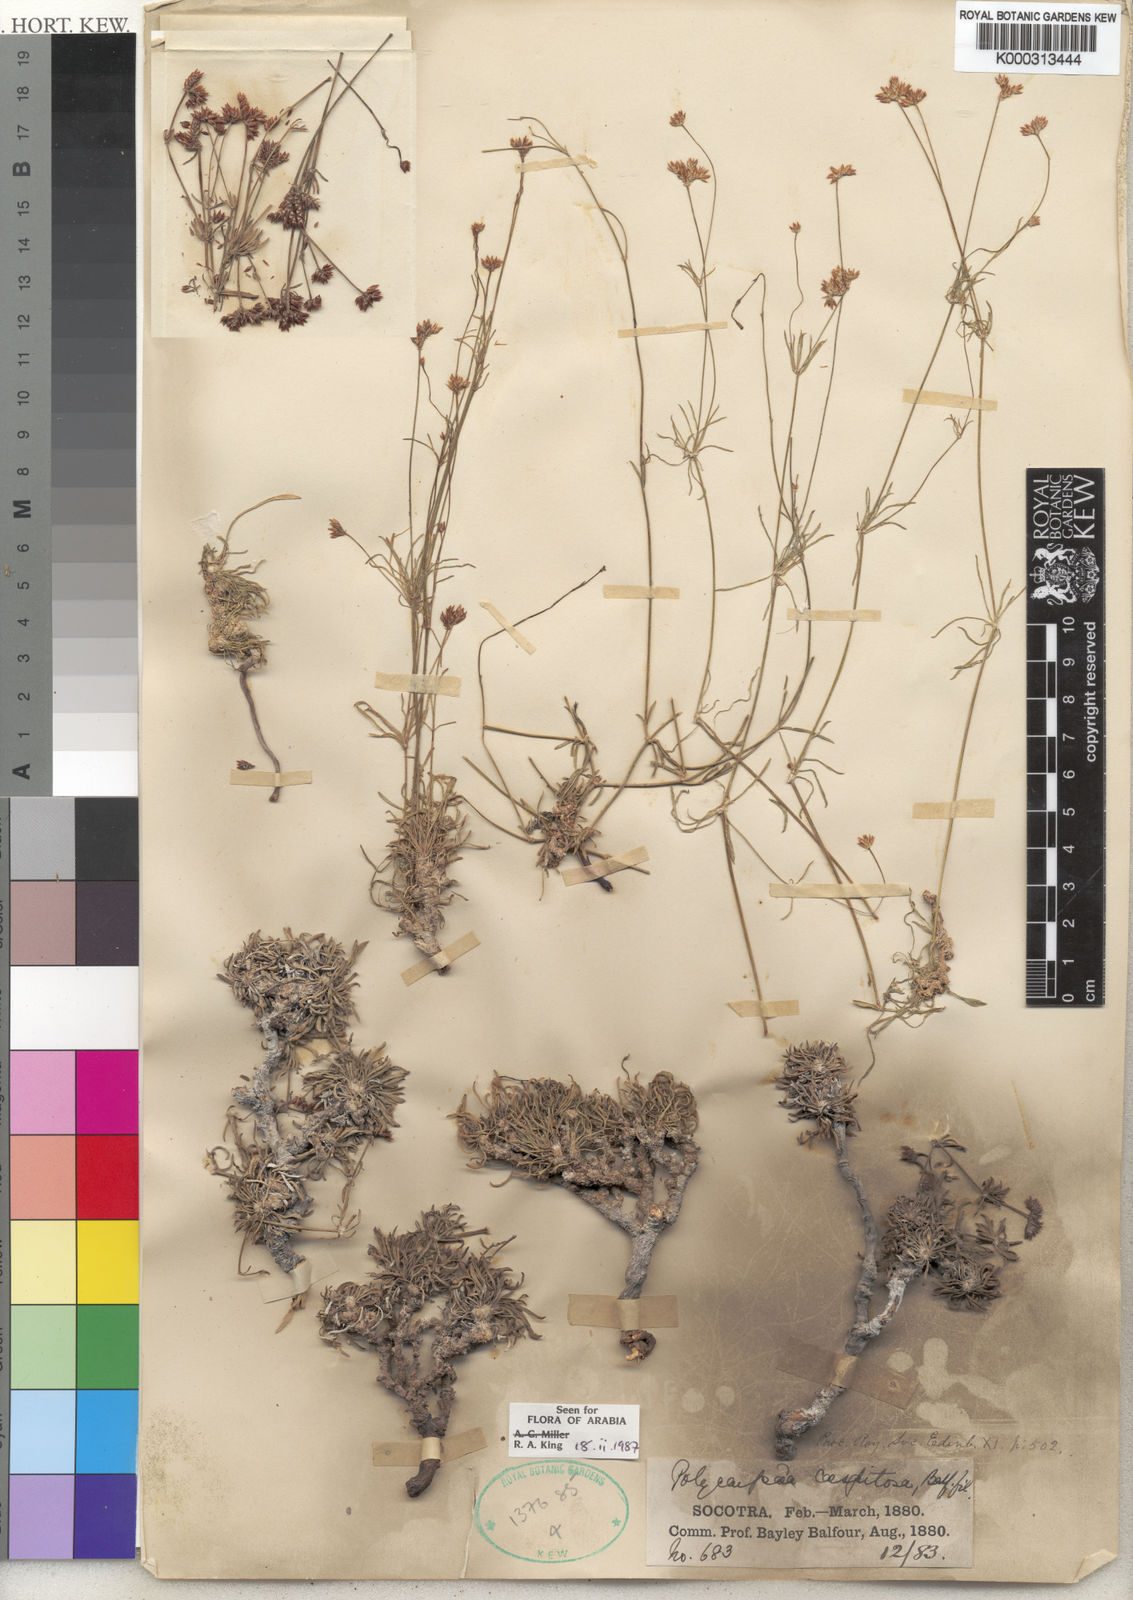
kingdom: Plantae
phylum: Tracheophyta
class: Magnoliopsida
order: Caryophyllales
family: Caryophyllaceae
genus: Polycarpaea
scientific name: Polycarpaea caespitosa
